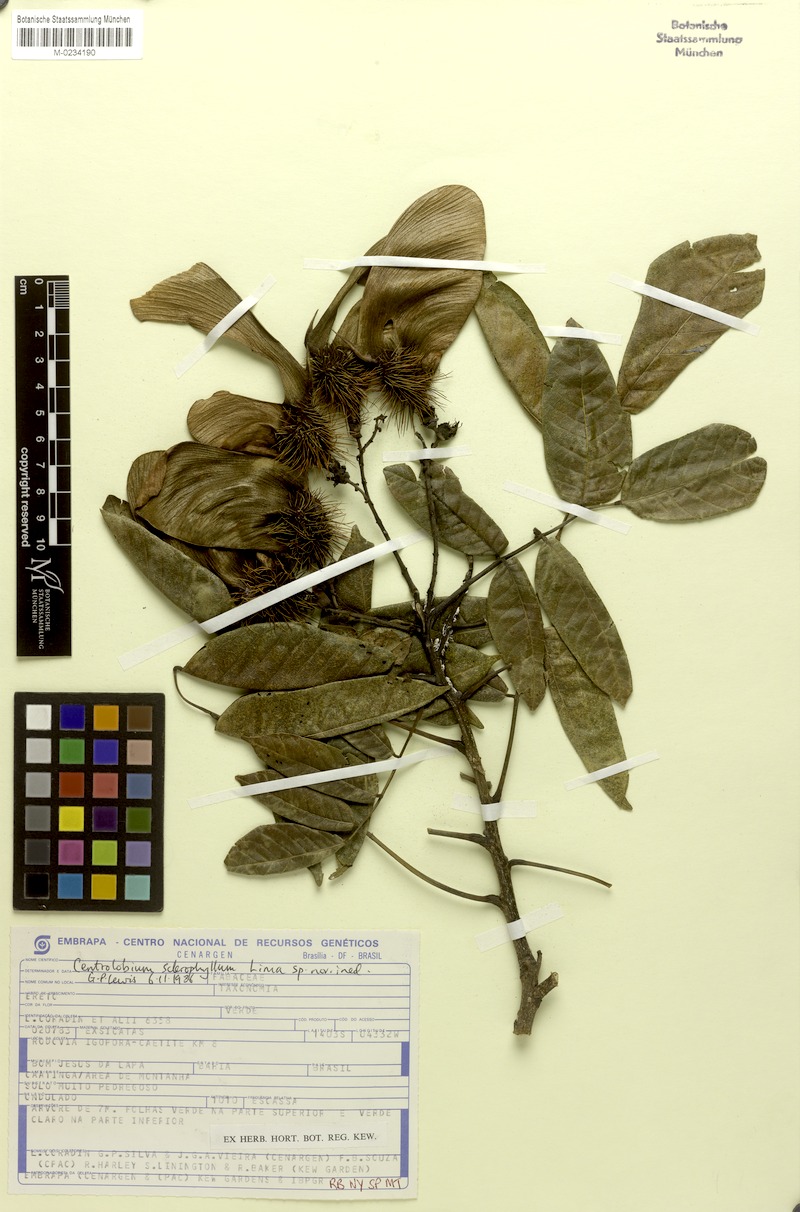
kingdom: Plantae
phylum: Tracheophyta
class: Magnoliopsida
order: Fabales
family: Fabaceae
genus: Centrolobium
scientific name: Centrolobium sclerophyllum
